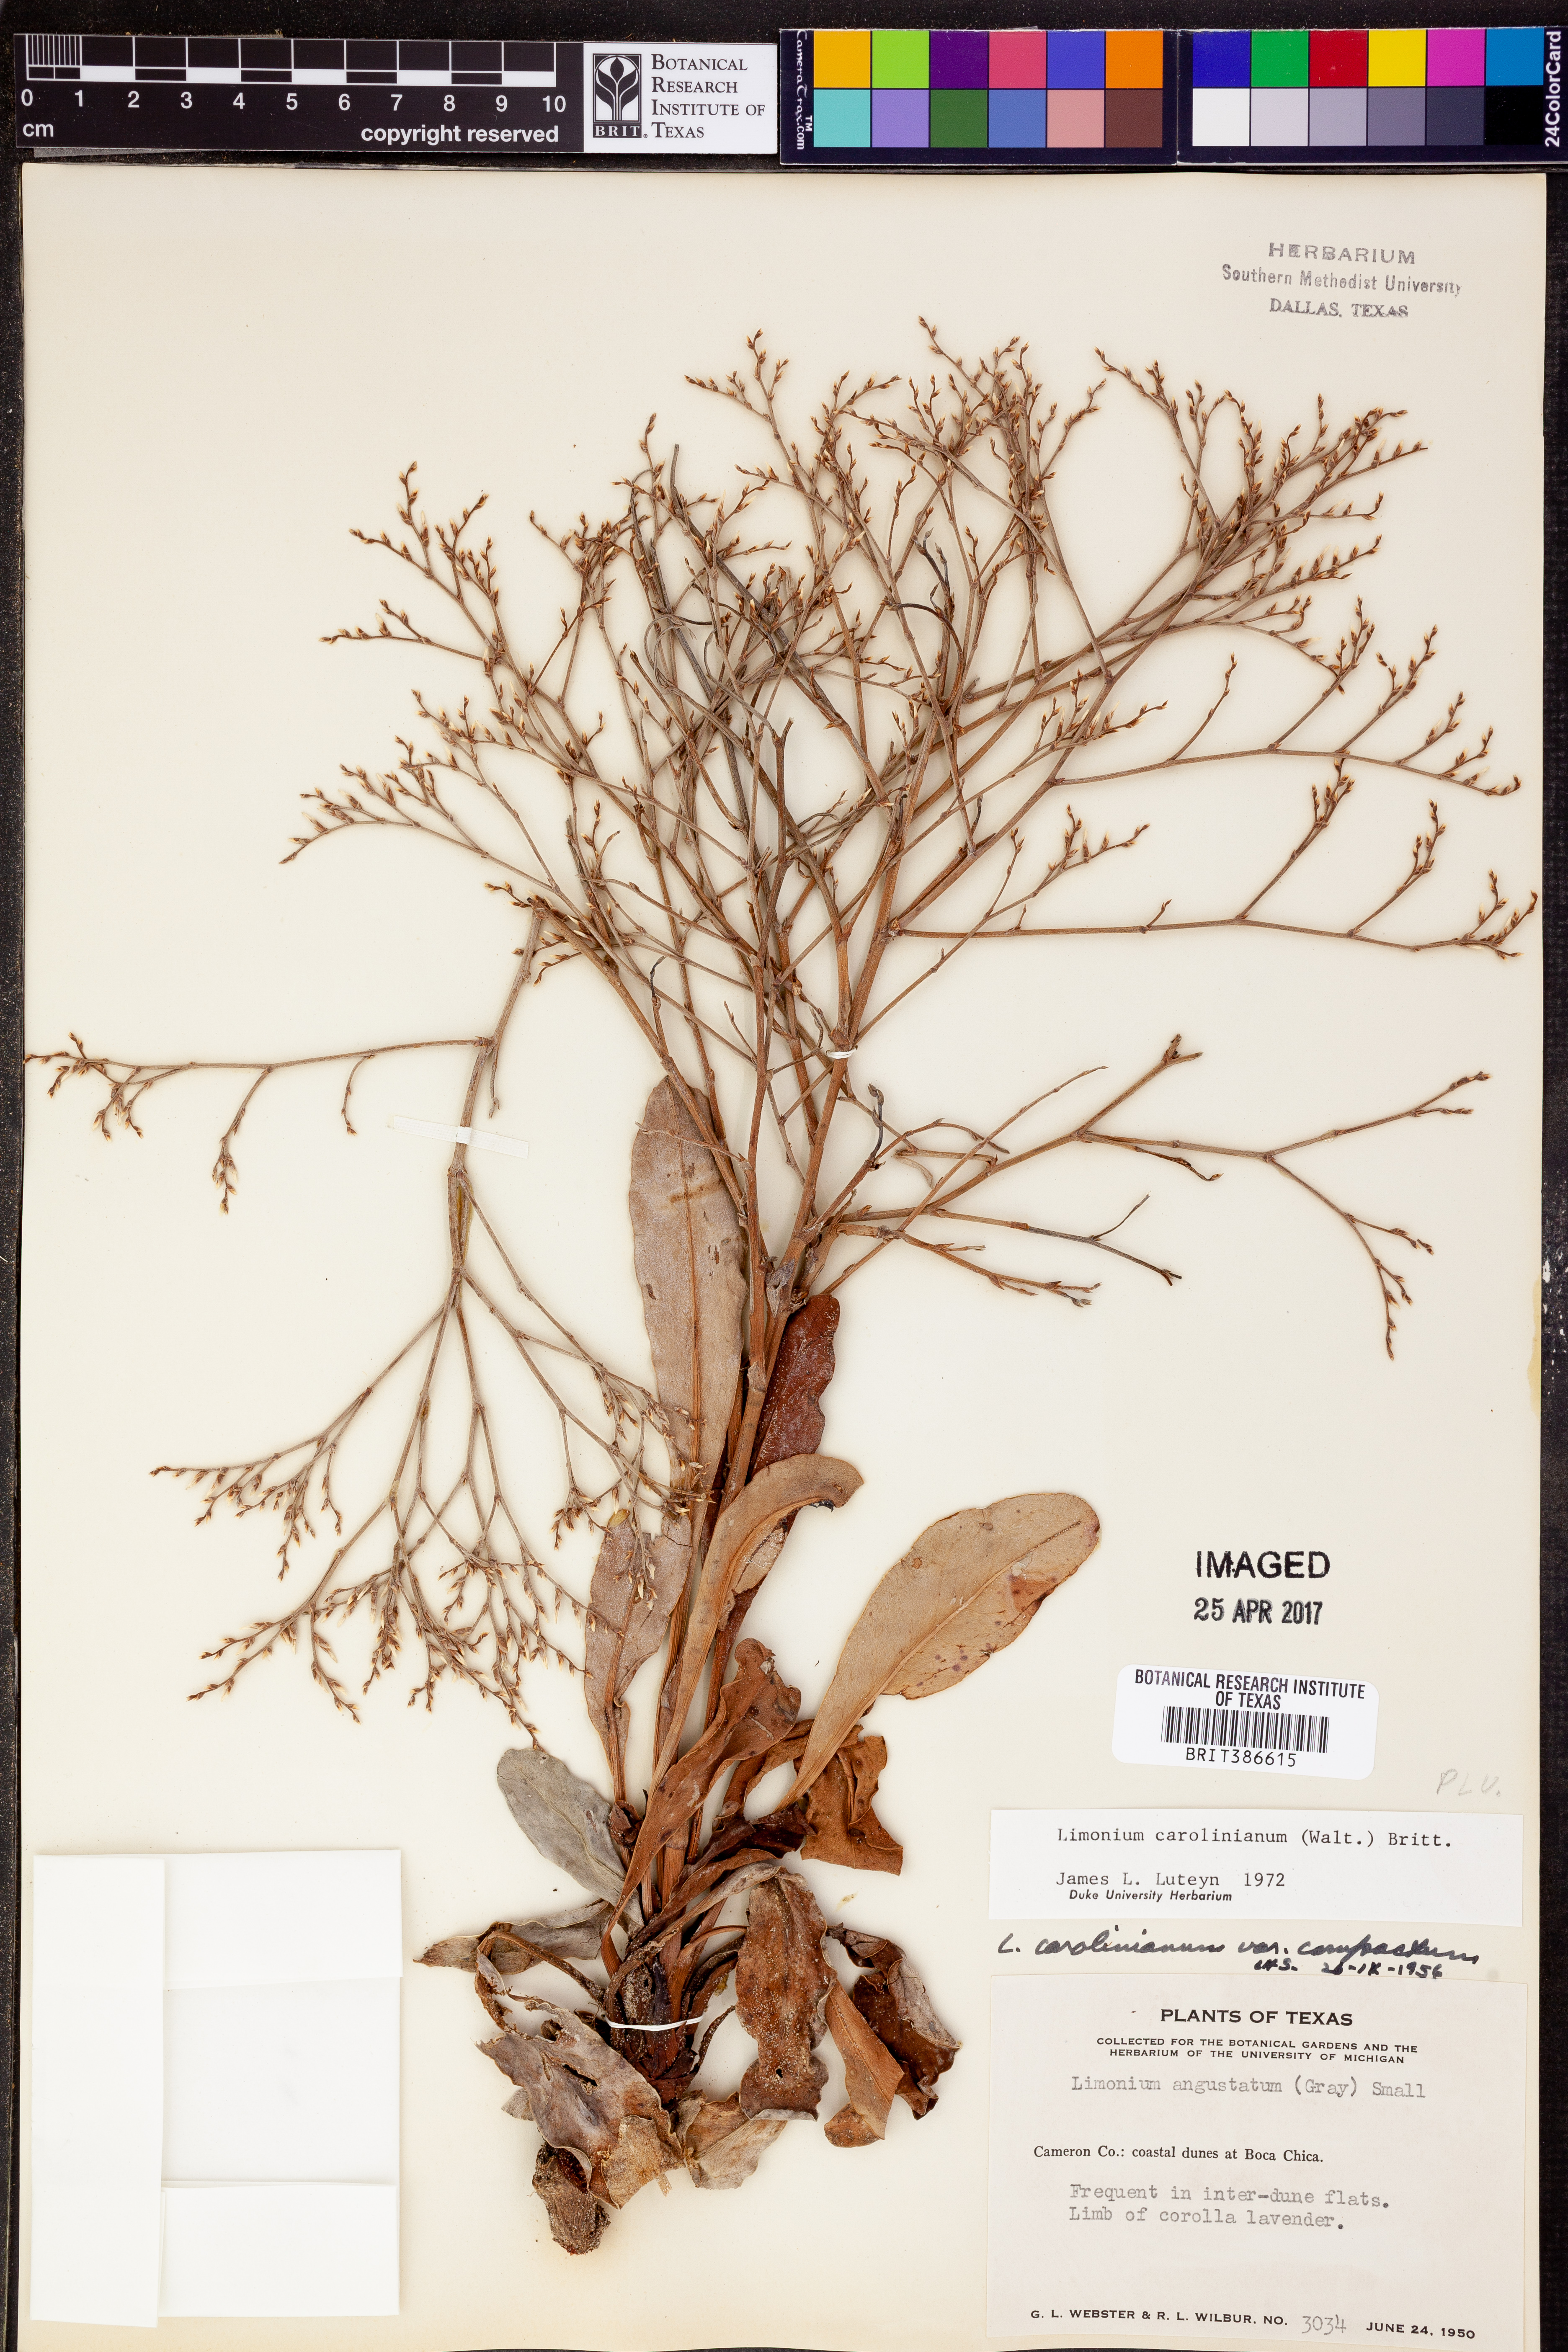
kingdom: Plantae
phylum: Tracheophyta
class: Magnoliopsida
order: Caryophyllales
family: Plumbaginaceae
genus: Limonium
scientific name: Limonium carolinianum
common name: Carolina sea lavender
